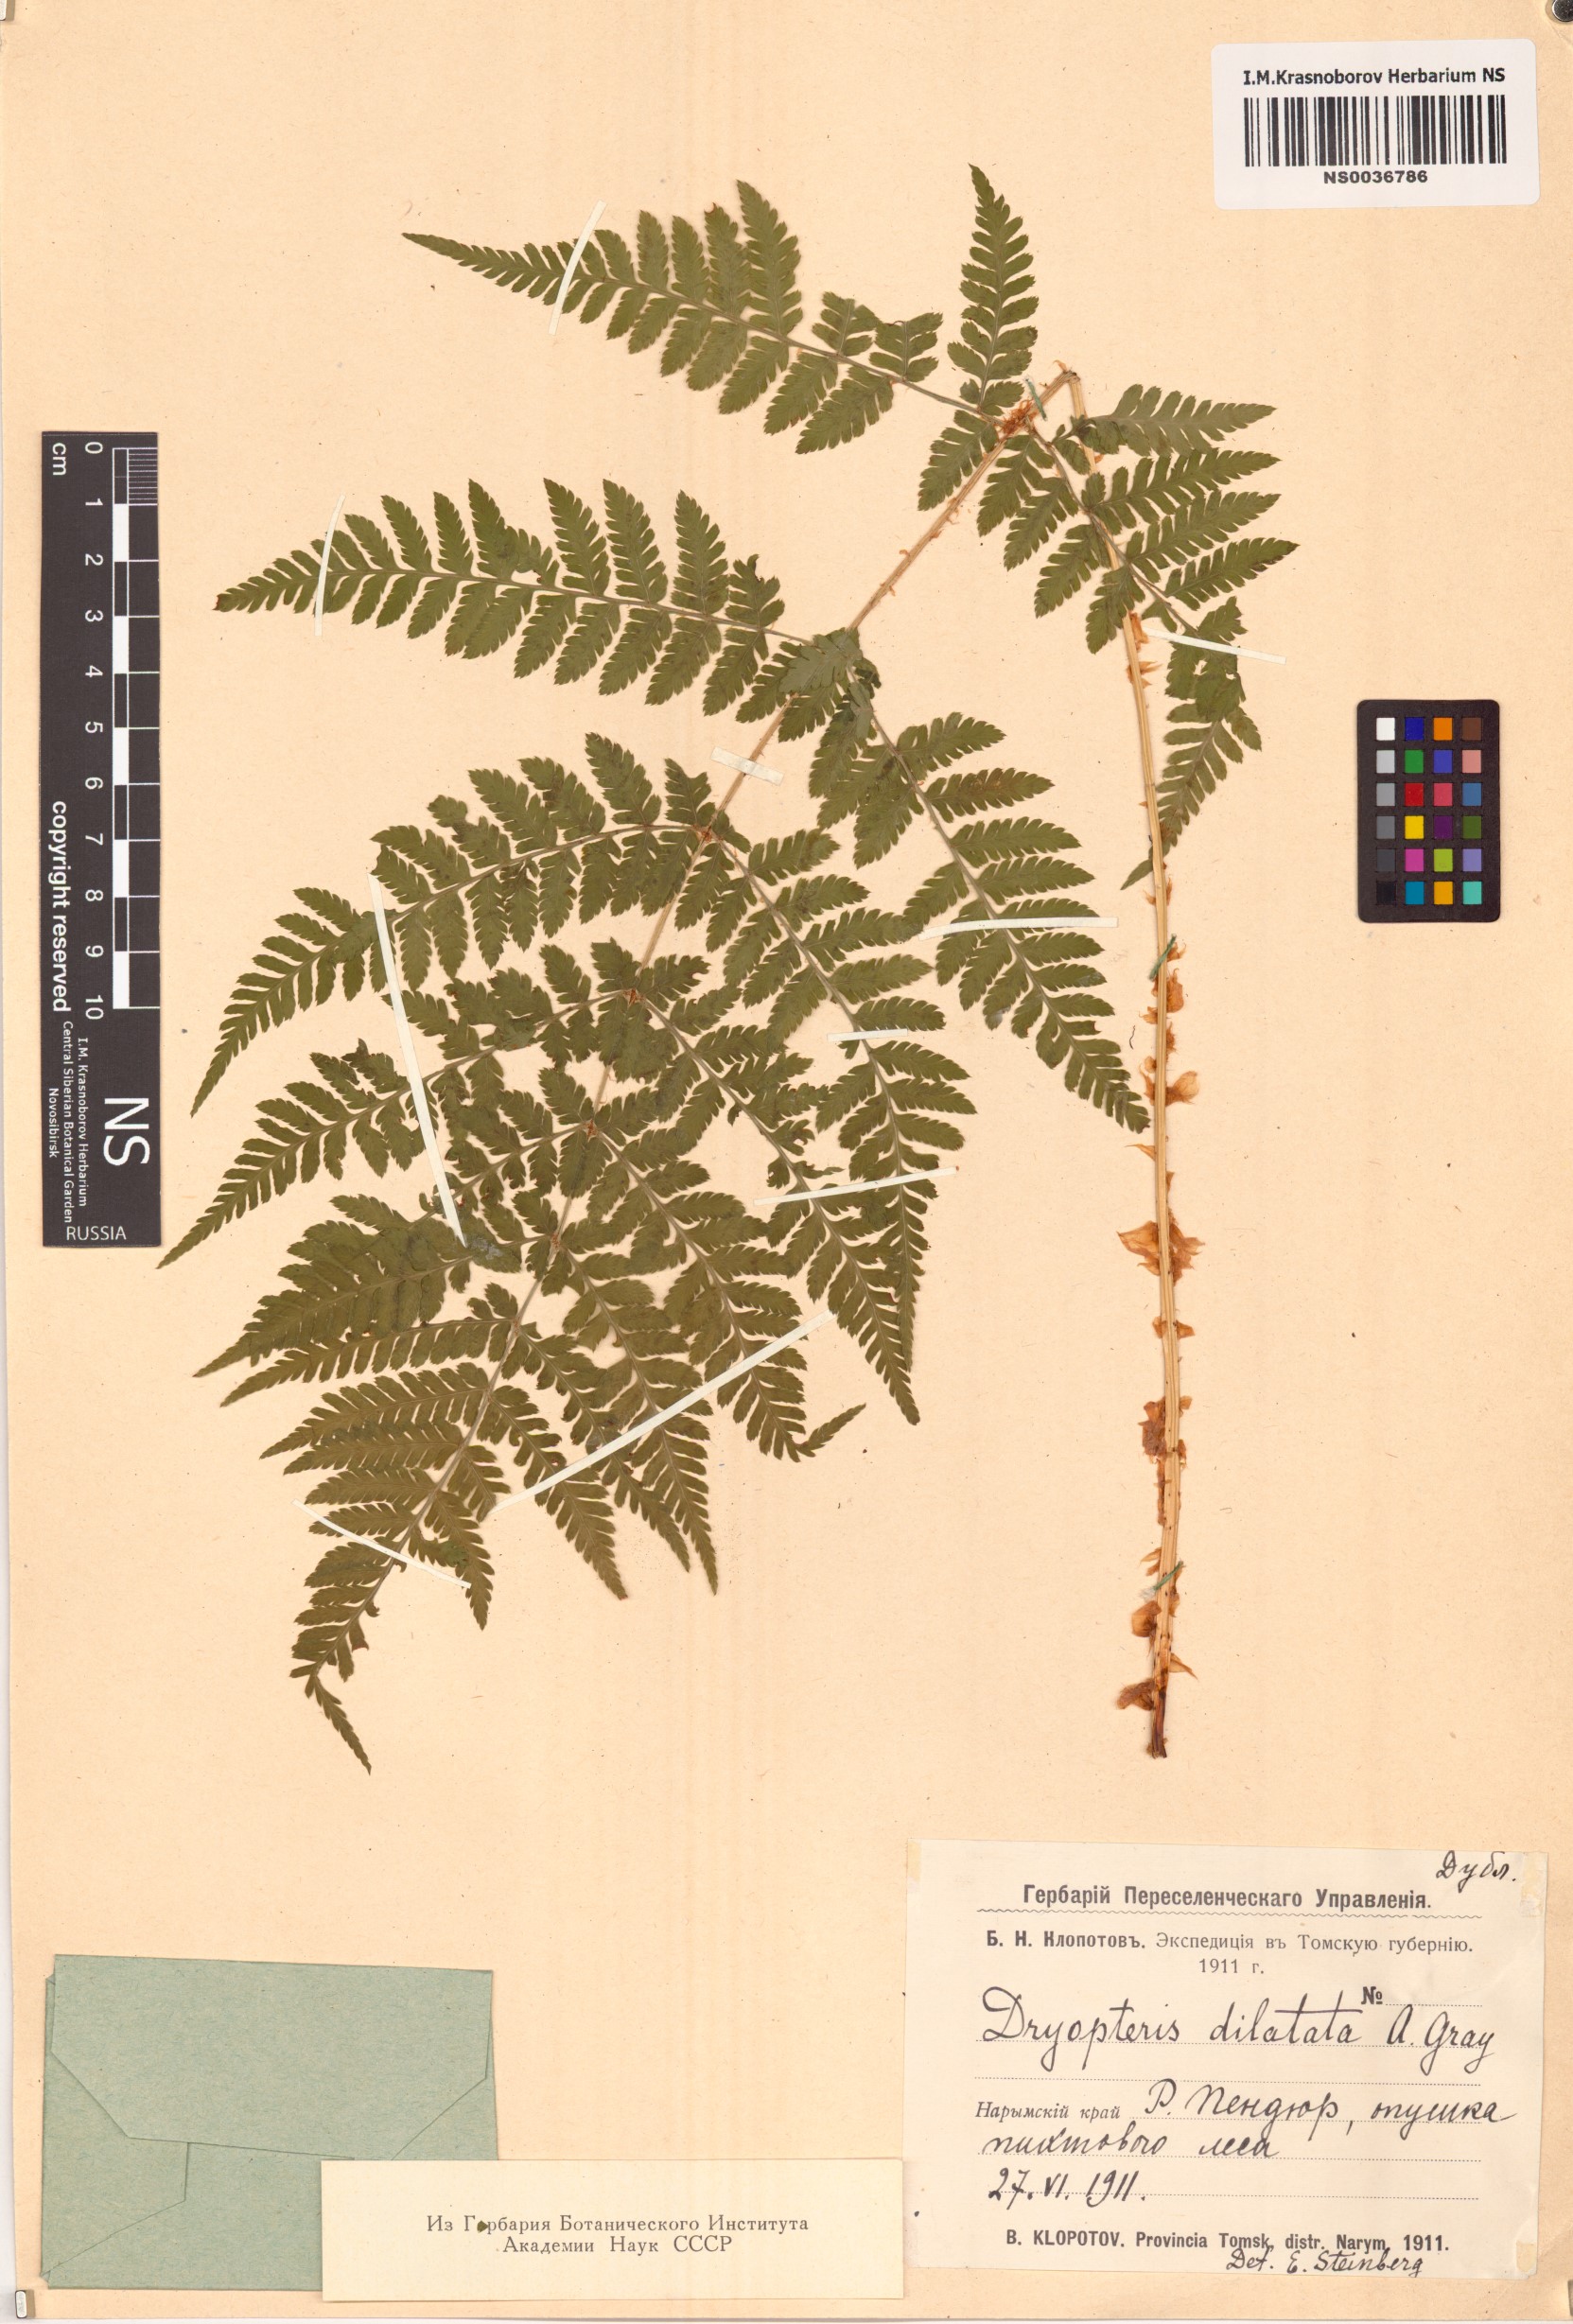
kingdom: Plantae
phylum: Tracheophyta
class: Polypodiopsida
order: Polypodiales
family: Dryopteridaceae
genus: Dryopteris
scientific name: Dryopteris dilatata
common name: Broad buckler-fern
